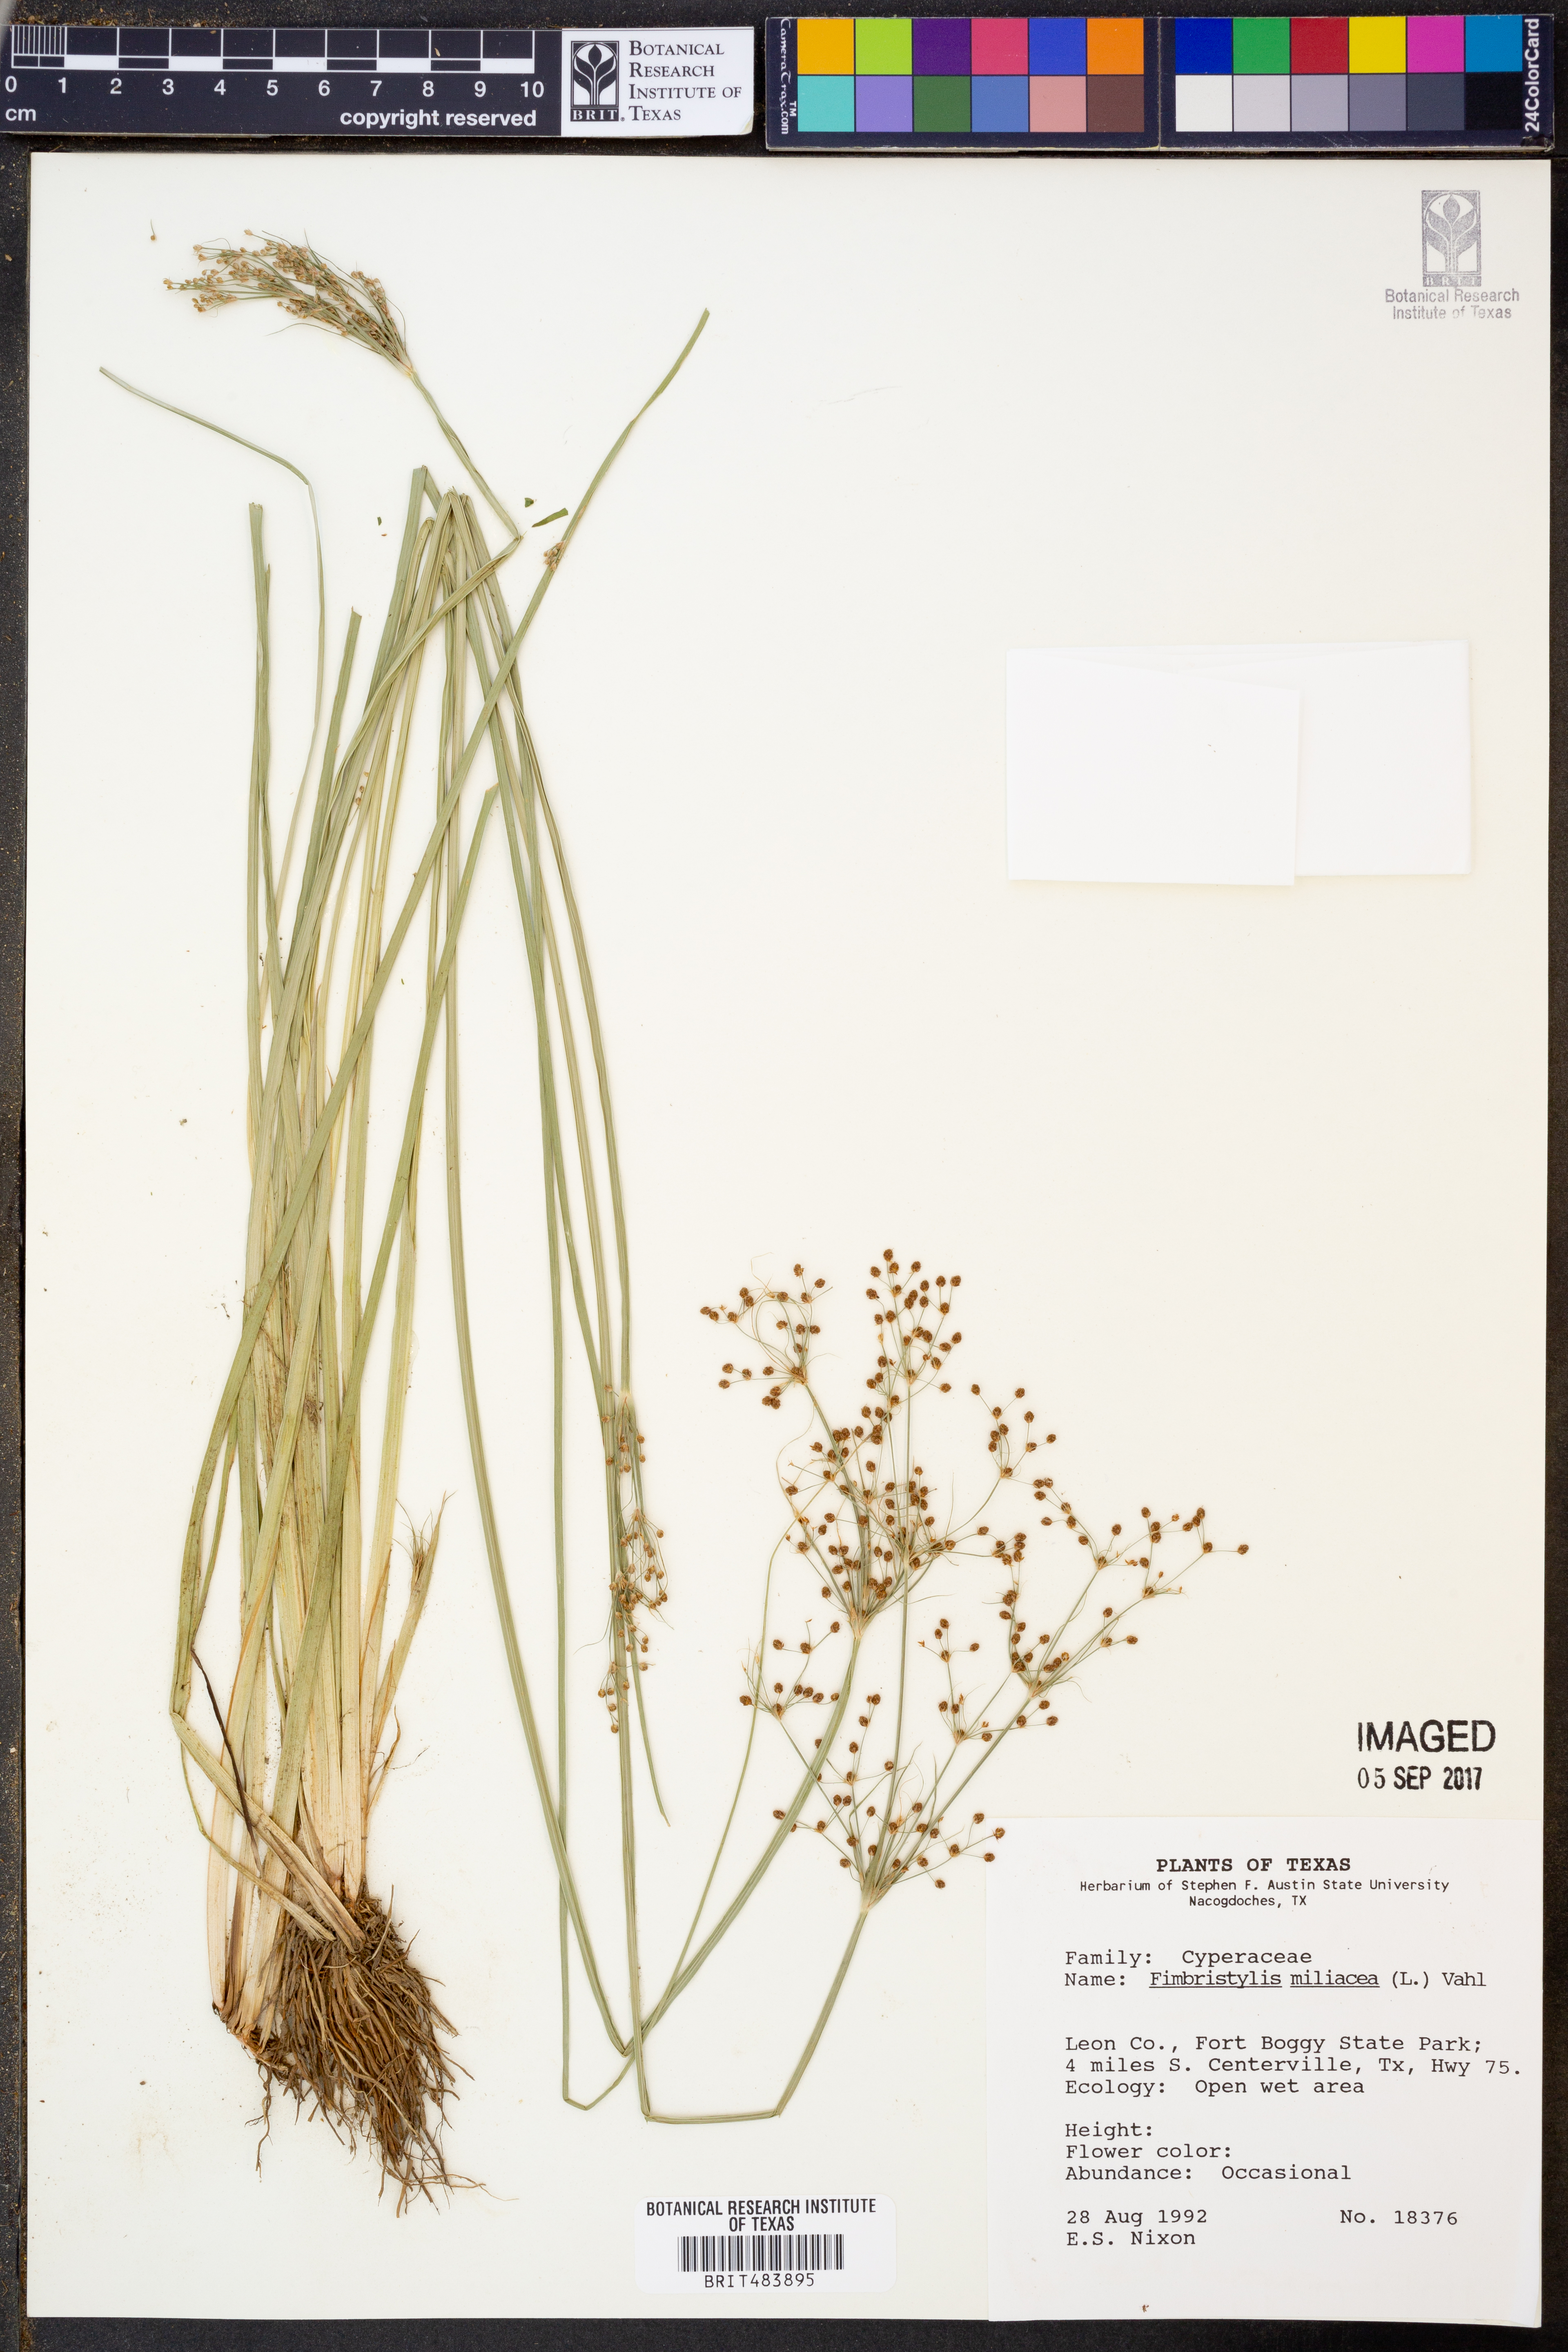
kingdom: Plantae
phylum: Tracheophyta
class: Liliopsida
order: Poales
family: Cyperaceae
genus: Fimbristylis
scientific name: Fimbristylis quinquangularis
